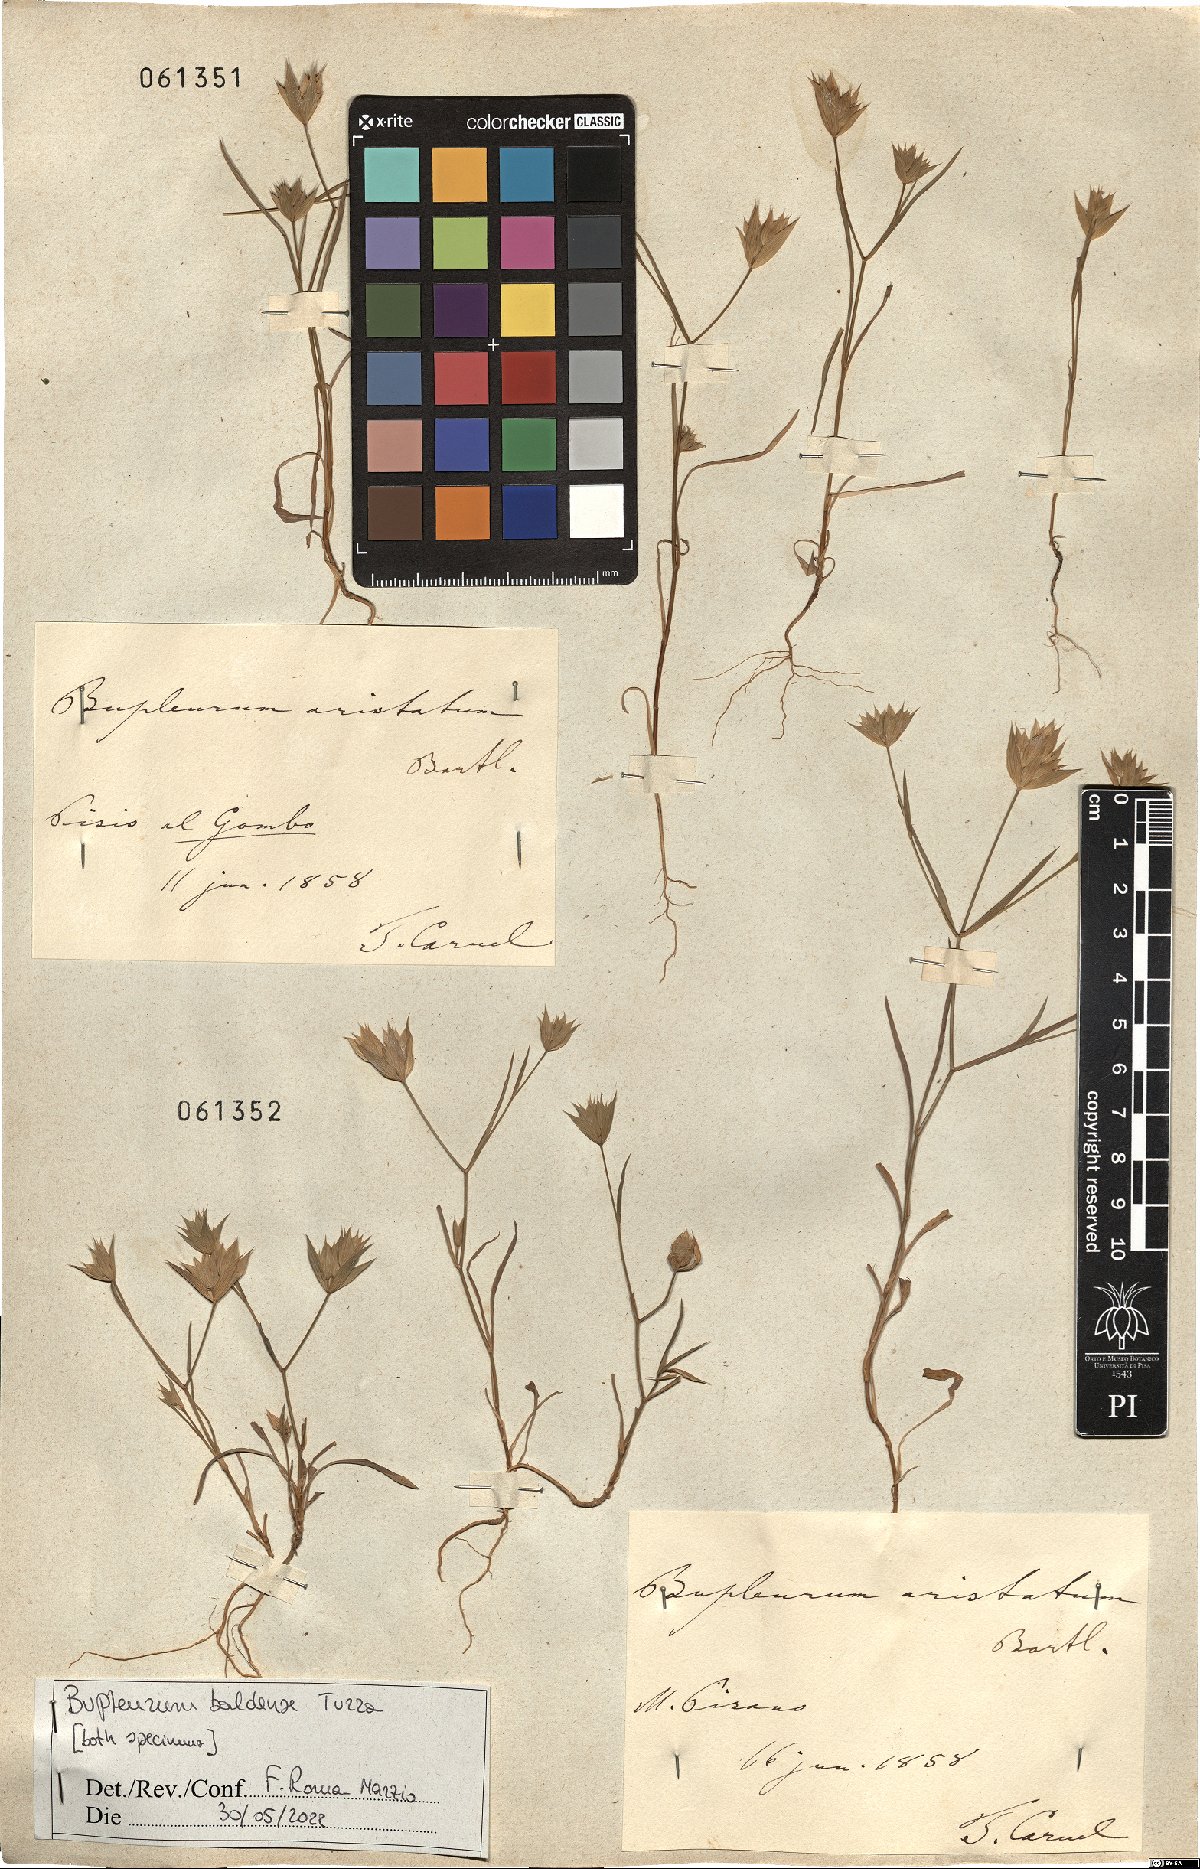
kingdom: Plantae
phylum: Tracheophyta
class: Magnoliopsida
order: Apiales
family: Apiaceae
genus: Bupleurum
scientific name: Bupleurum baldense
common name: Small hare's-ear
